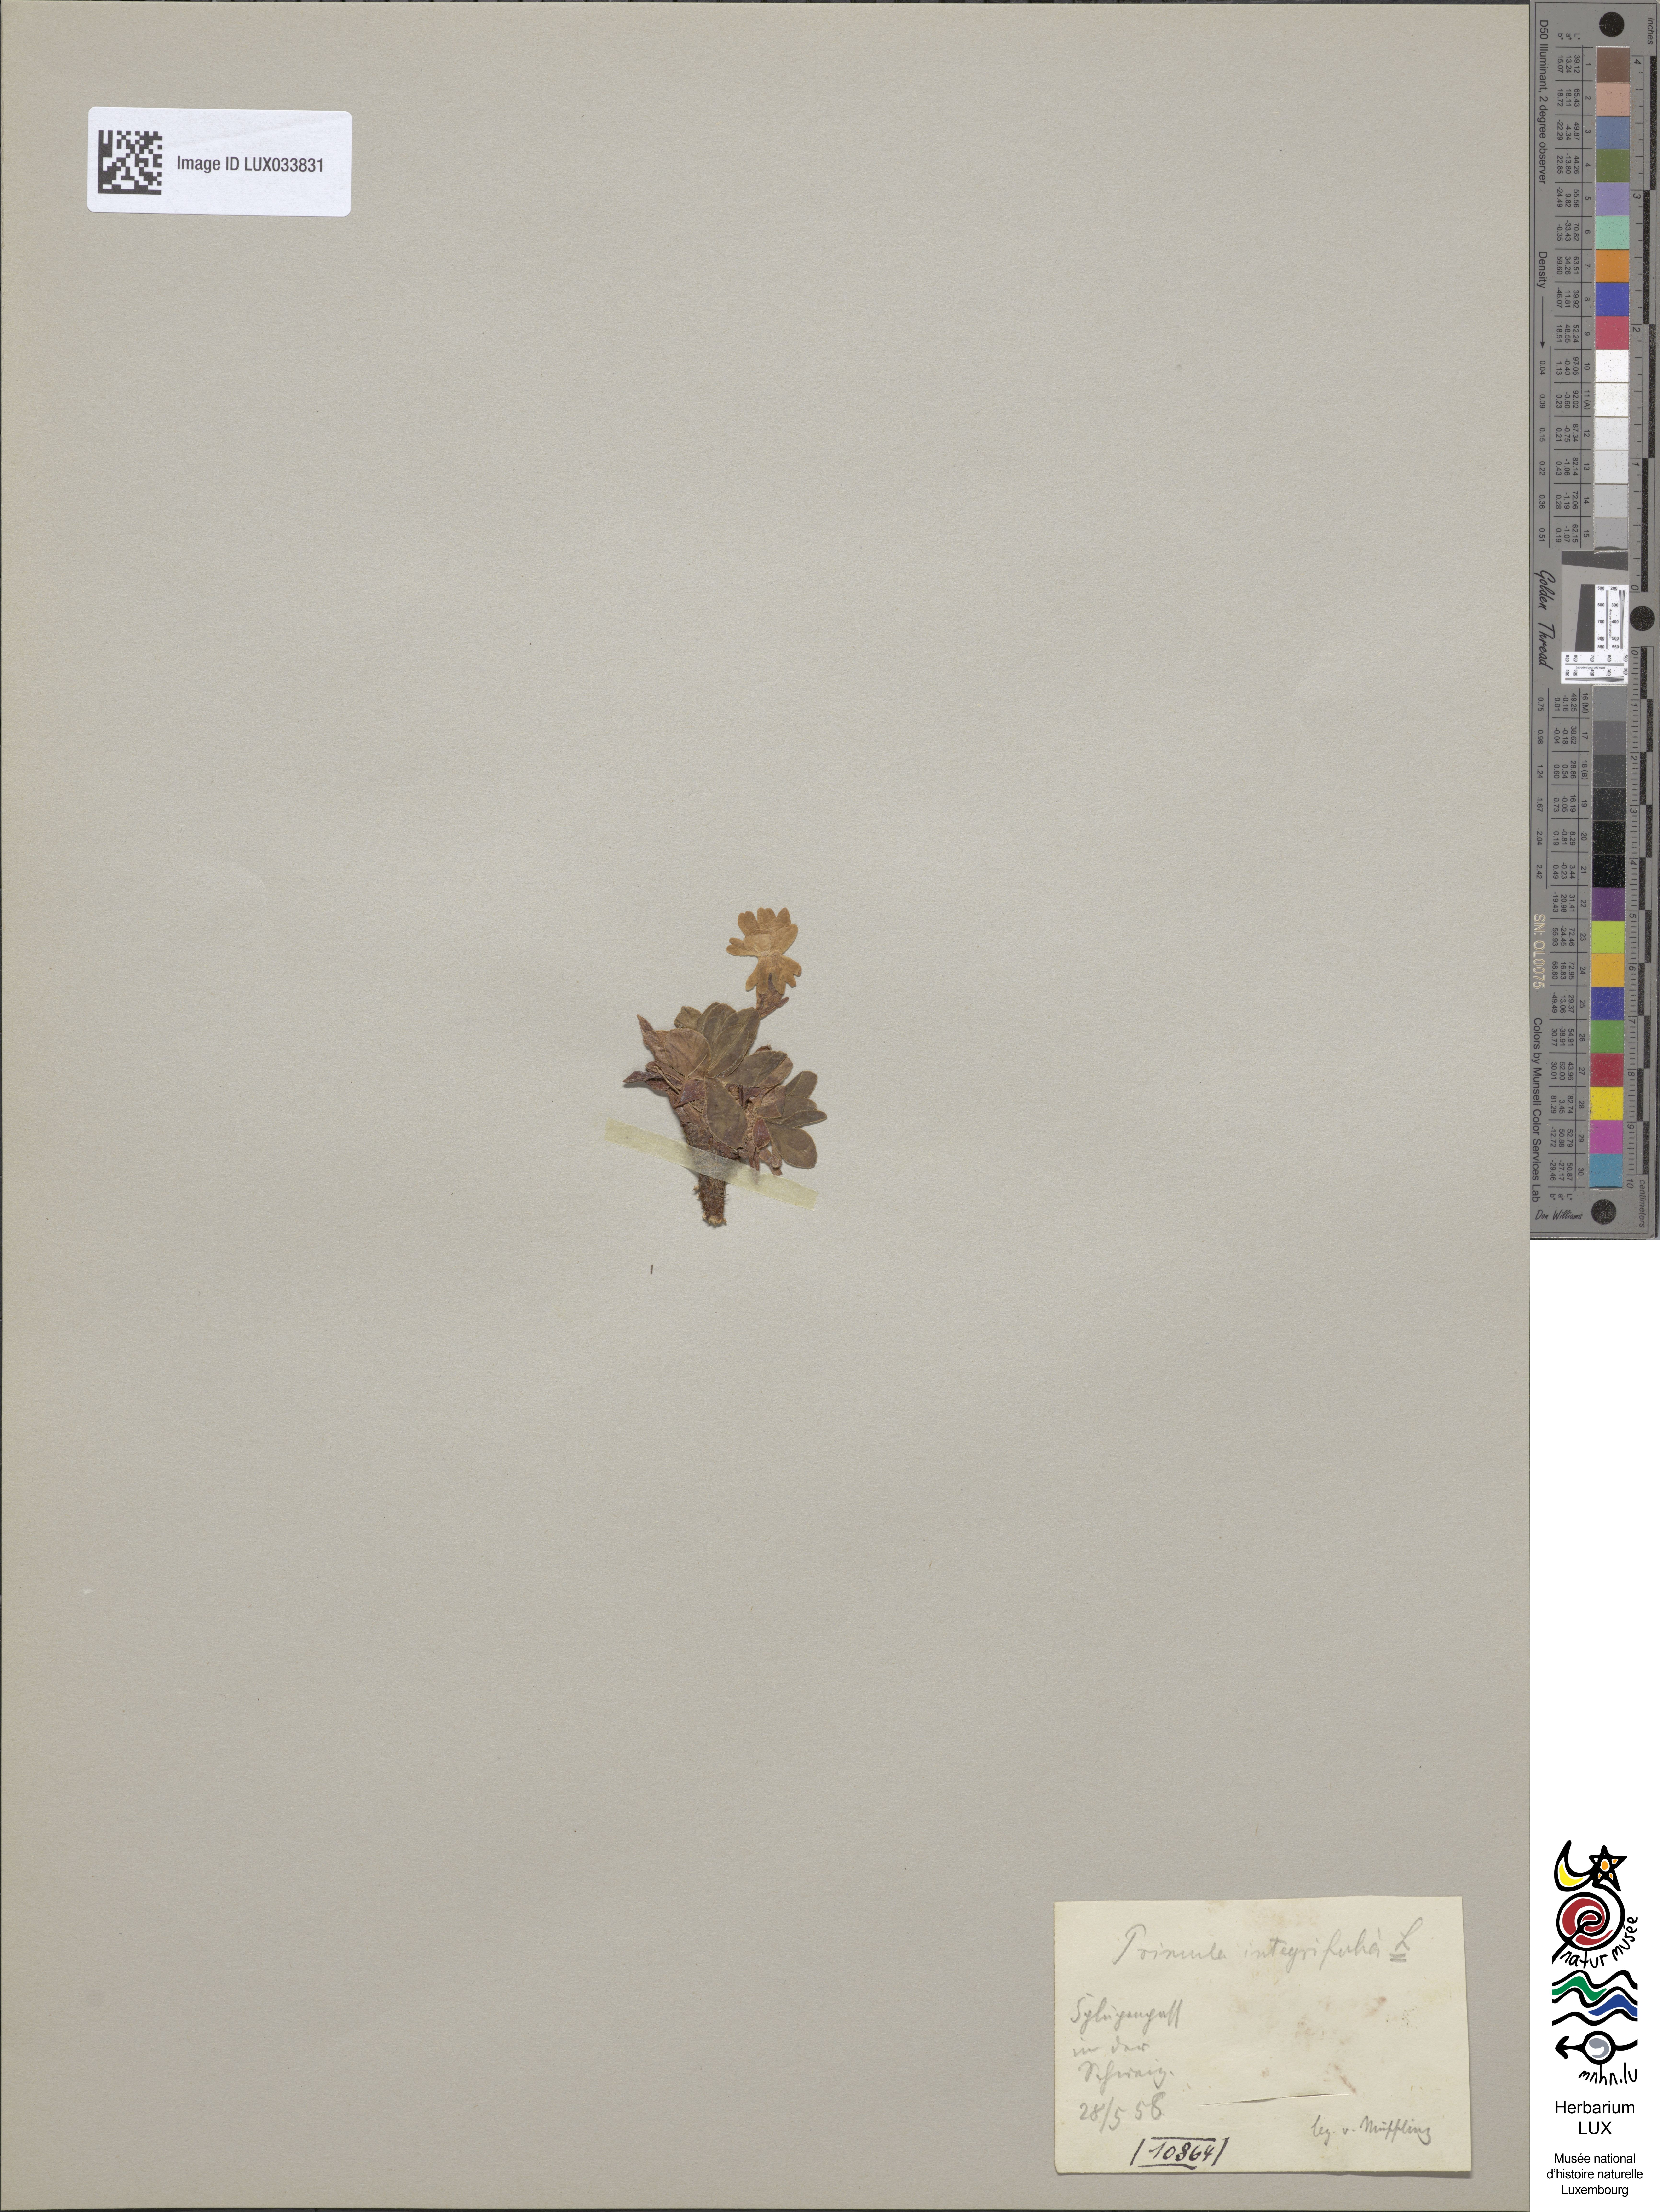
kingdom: Plantae
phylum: Tracheophyta
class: Magnoliopsida
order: Ericales
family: Primulaceae
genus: Primula
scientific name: Primula integrifolia
